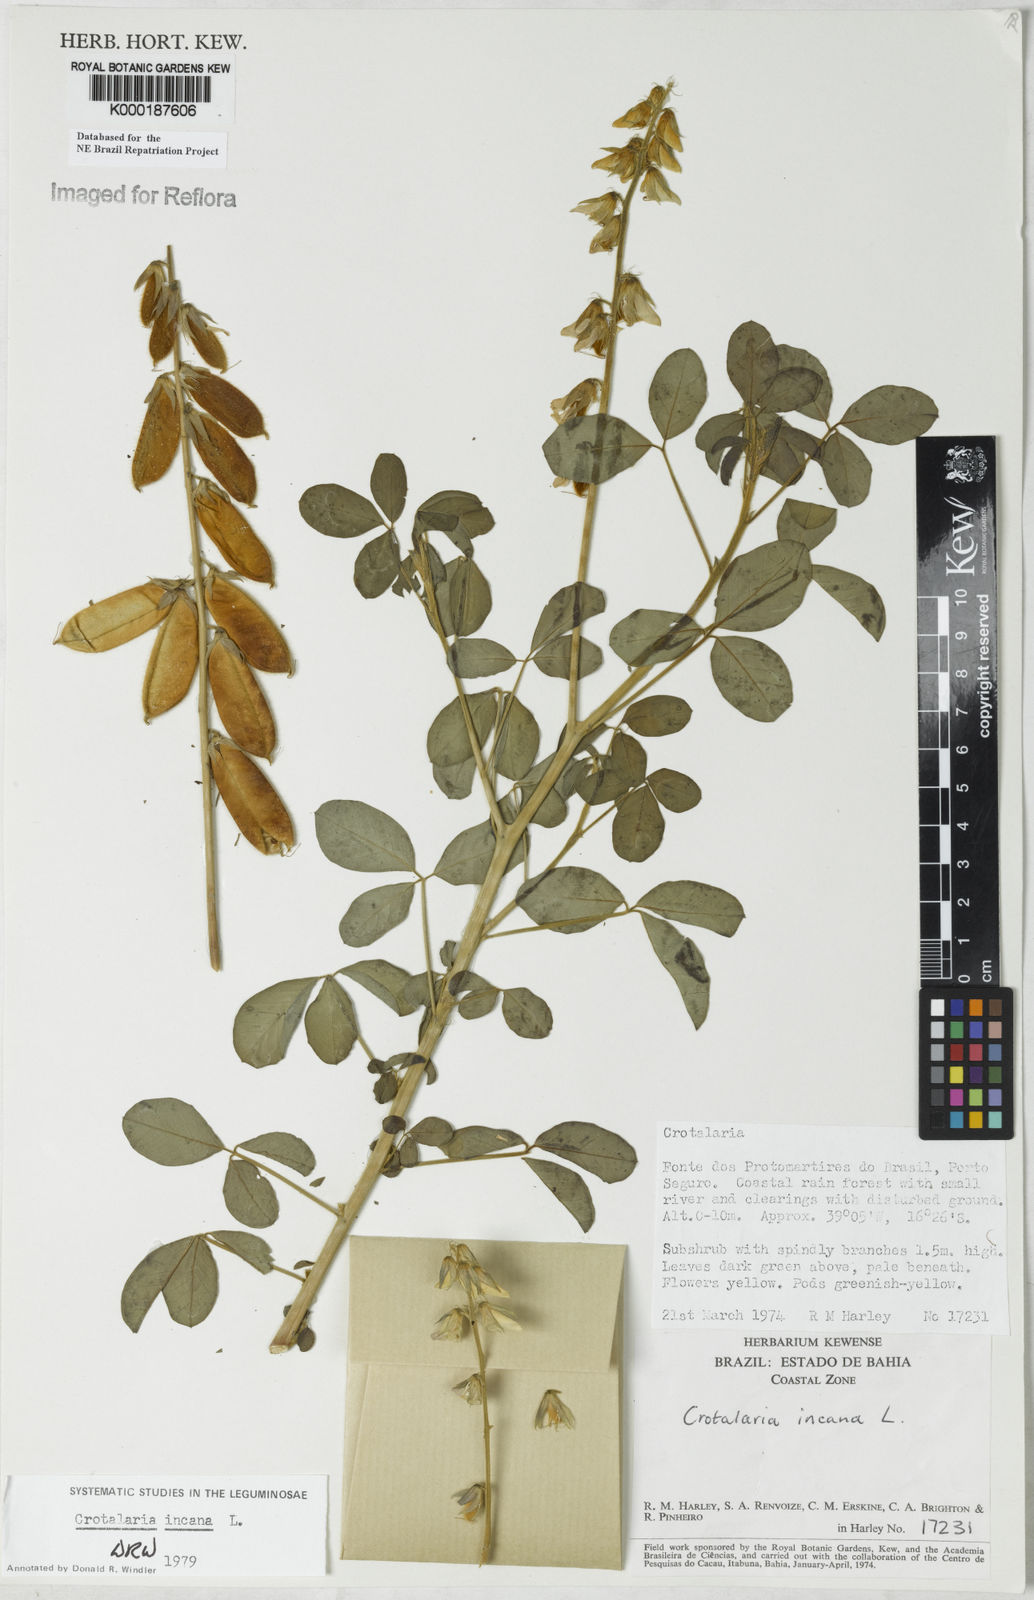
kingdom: Plantae
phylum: Tracheophyta
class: Magnoliopsida
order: Fabales
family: Fabaceae
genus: Crotalaria
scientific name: Crotalaria incana
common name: Shakeshake
